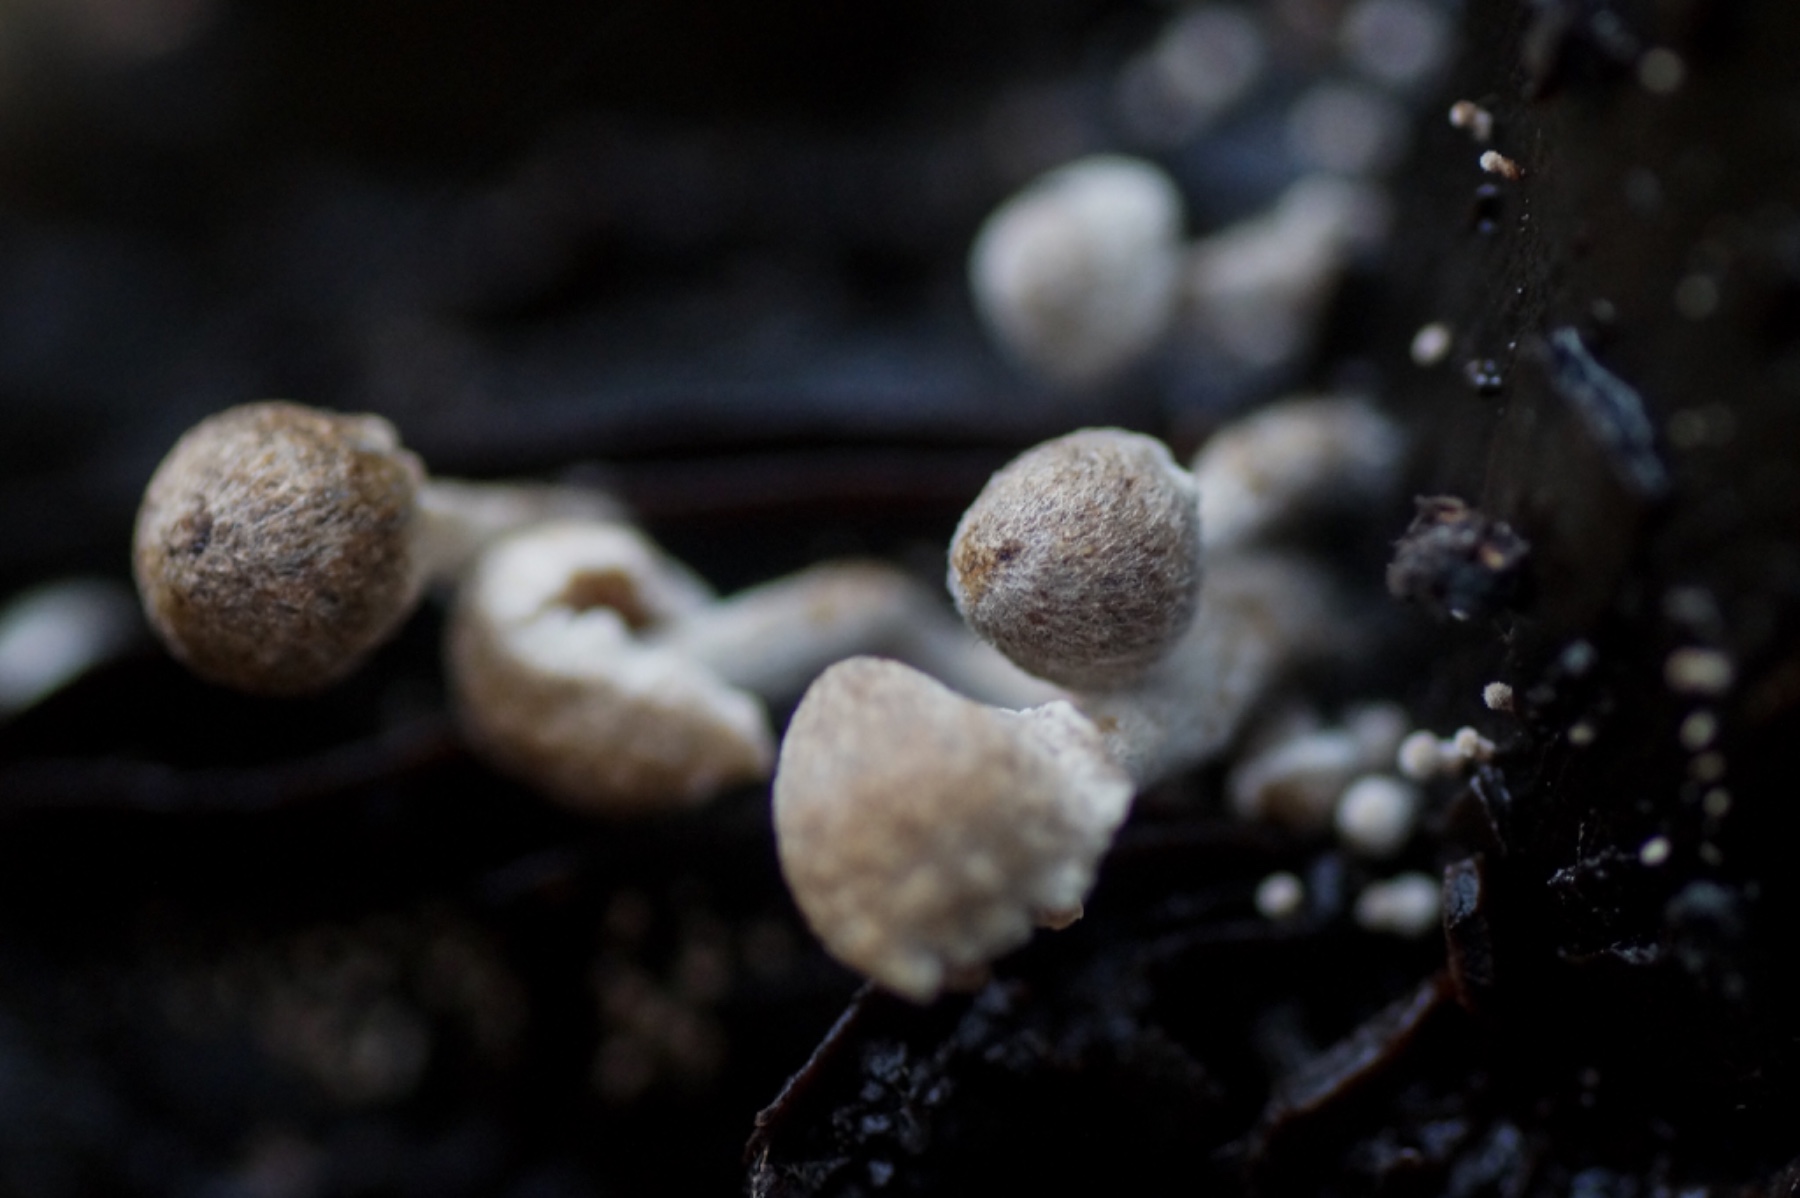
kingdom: Fungi
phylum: Basidiomycota
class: Agaricomycetes
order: Agaricales
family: Lyophyllaceae
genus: Asterophora
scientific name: Asterophora
